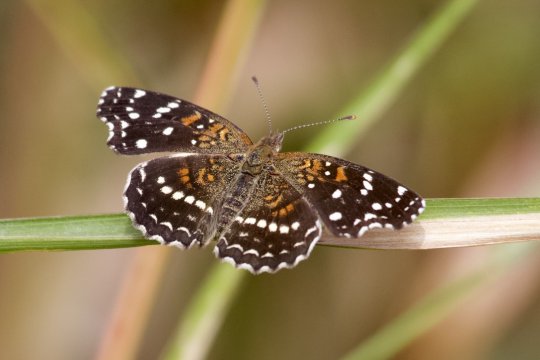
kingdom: Animalia
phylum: Arthropoda
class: Insecta
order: Lepidoptera
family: Nymphalidae
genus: Anthanassa
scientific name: Anthanassa texana
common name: Texan Crescent
